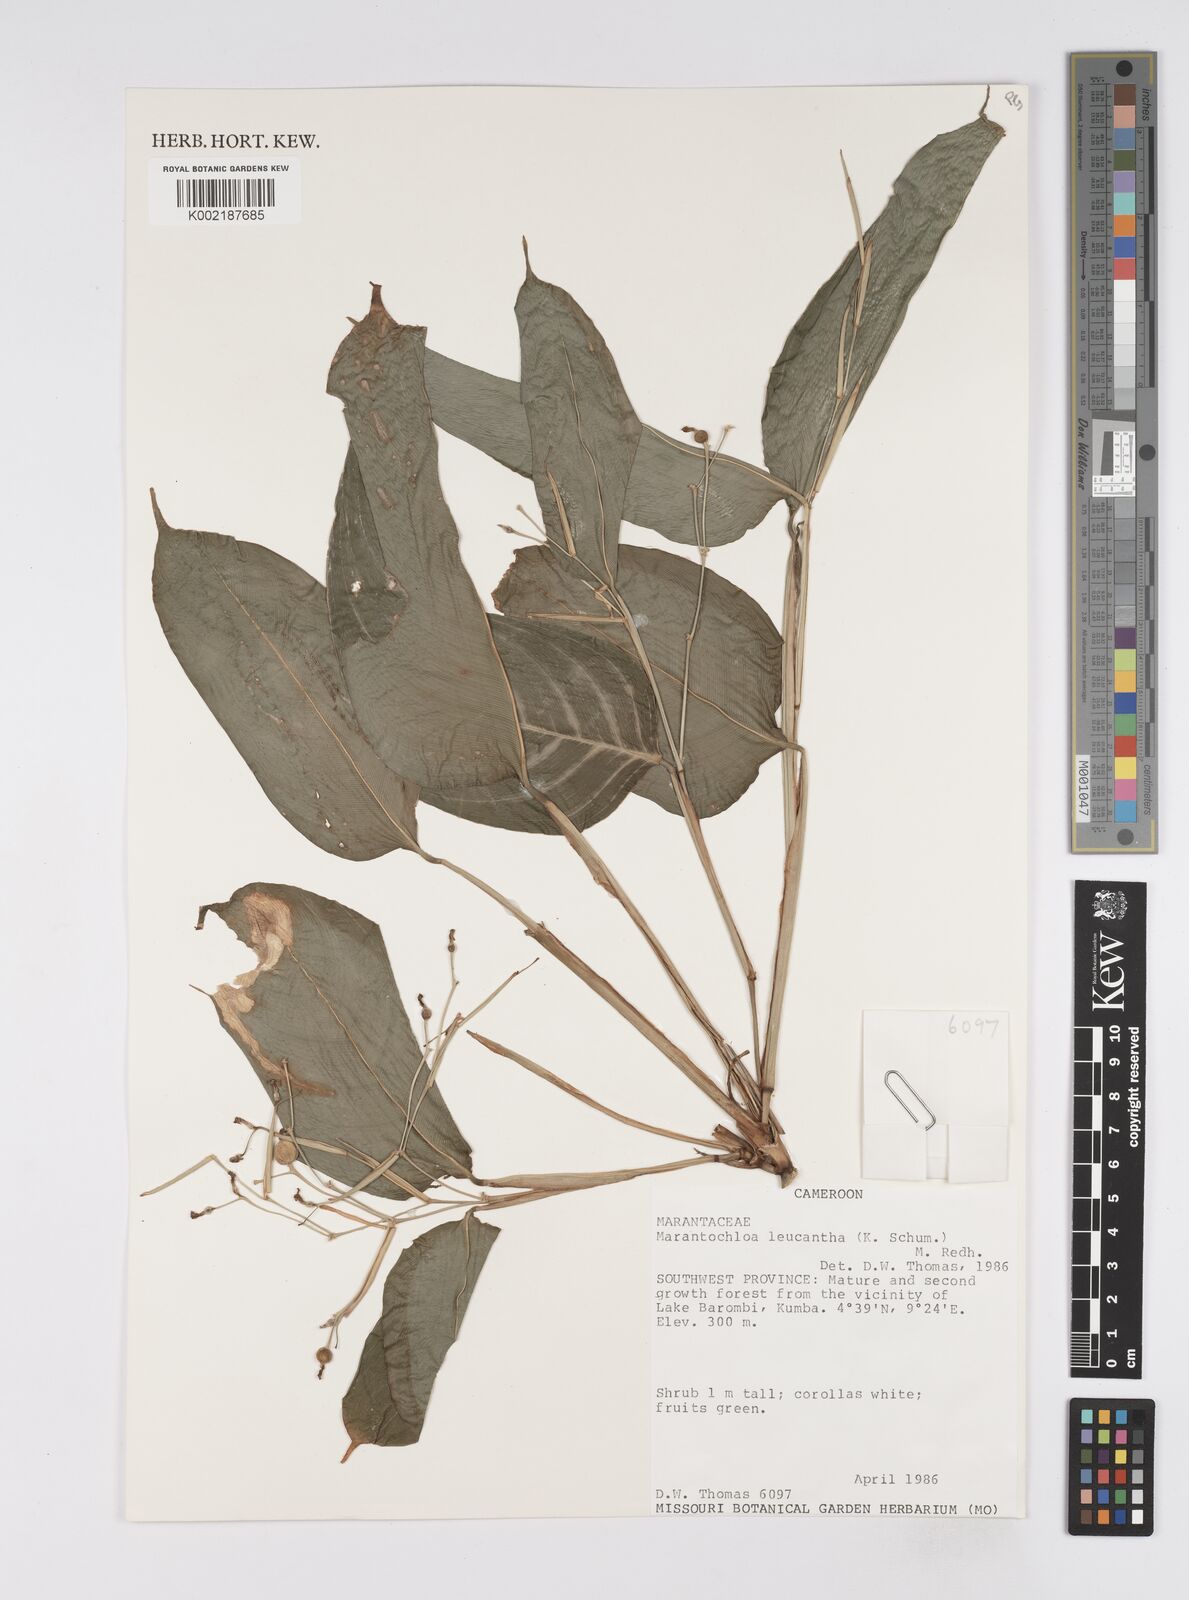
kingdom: Plantae
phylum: Tracheophyta
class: Liliopsida
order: Zingiberales
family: Marantaceae
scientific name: Marantaceae
